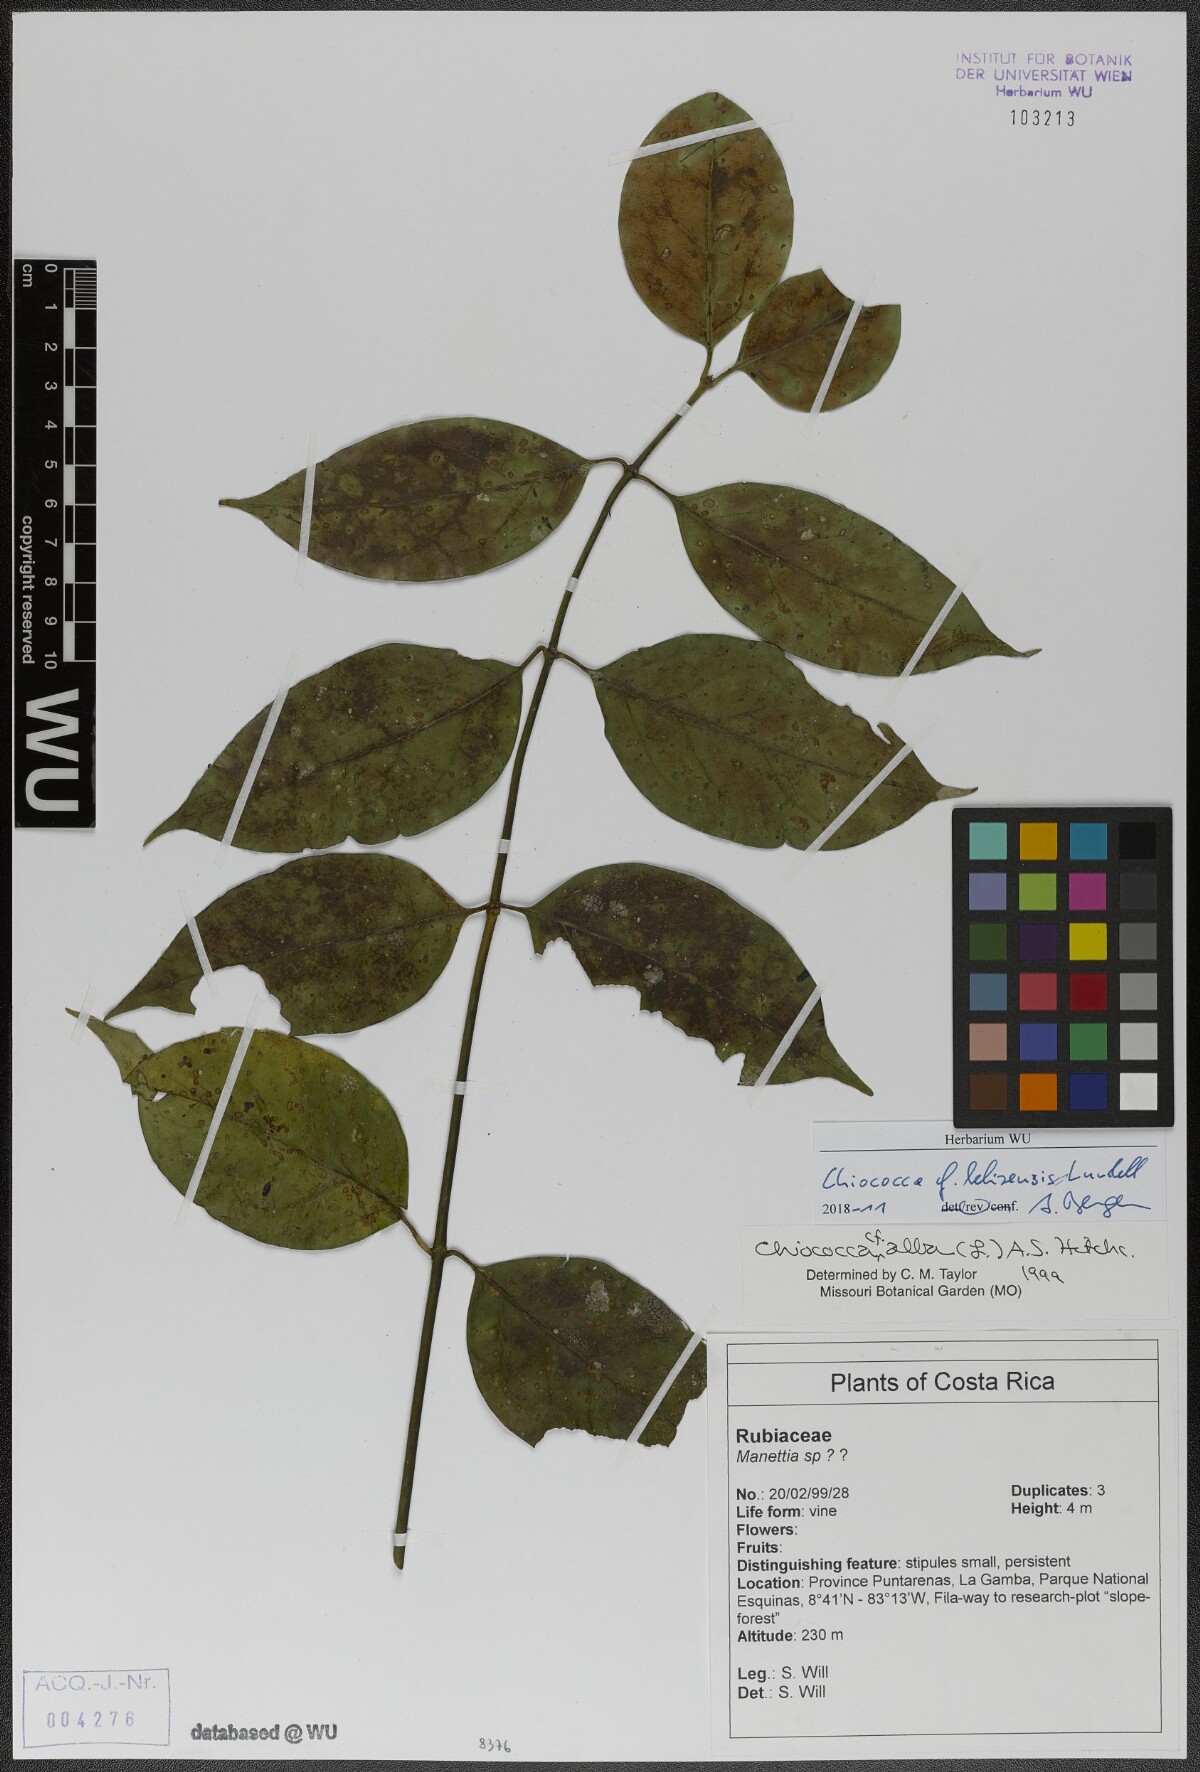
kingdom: Plantae
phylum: Tracheophyta
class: Magnoliopsida
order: Gentianales
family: Rubiaceae
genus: Chiococca
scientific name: Chiococca belizensis
